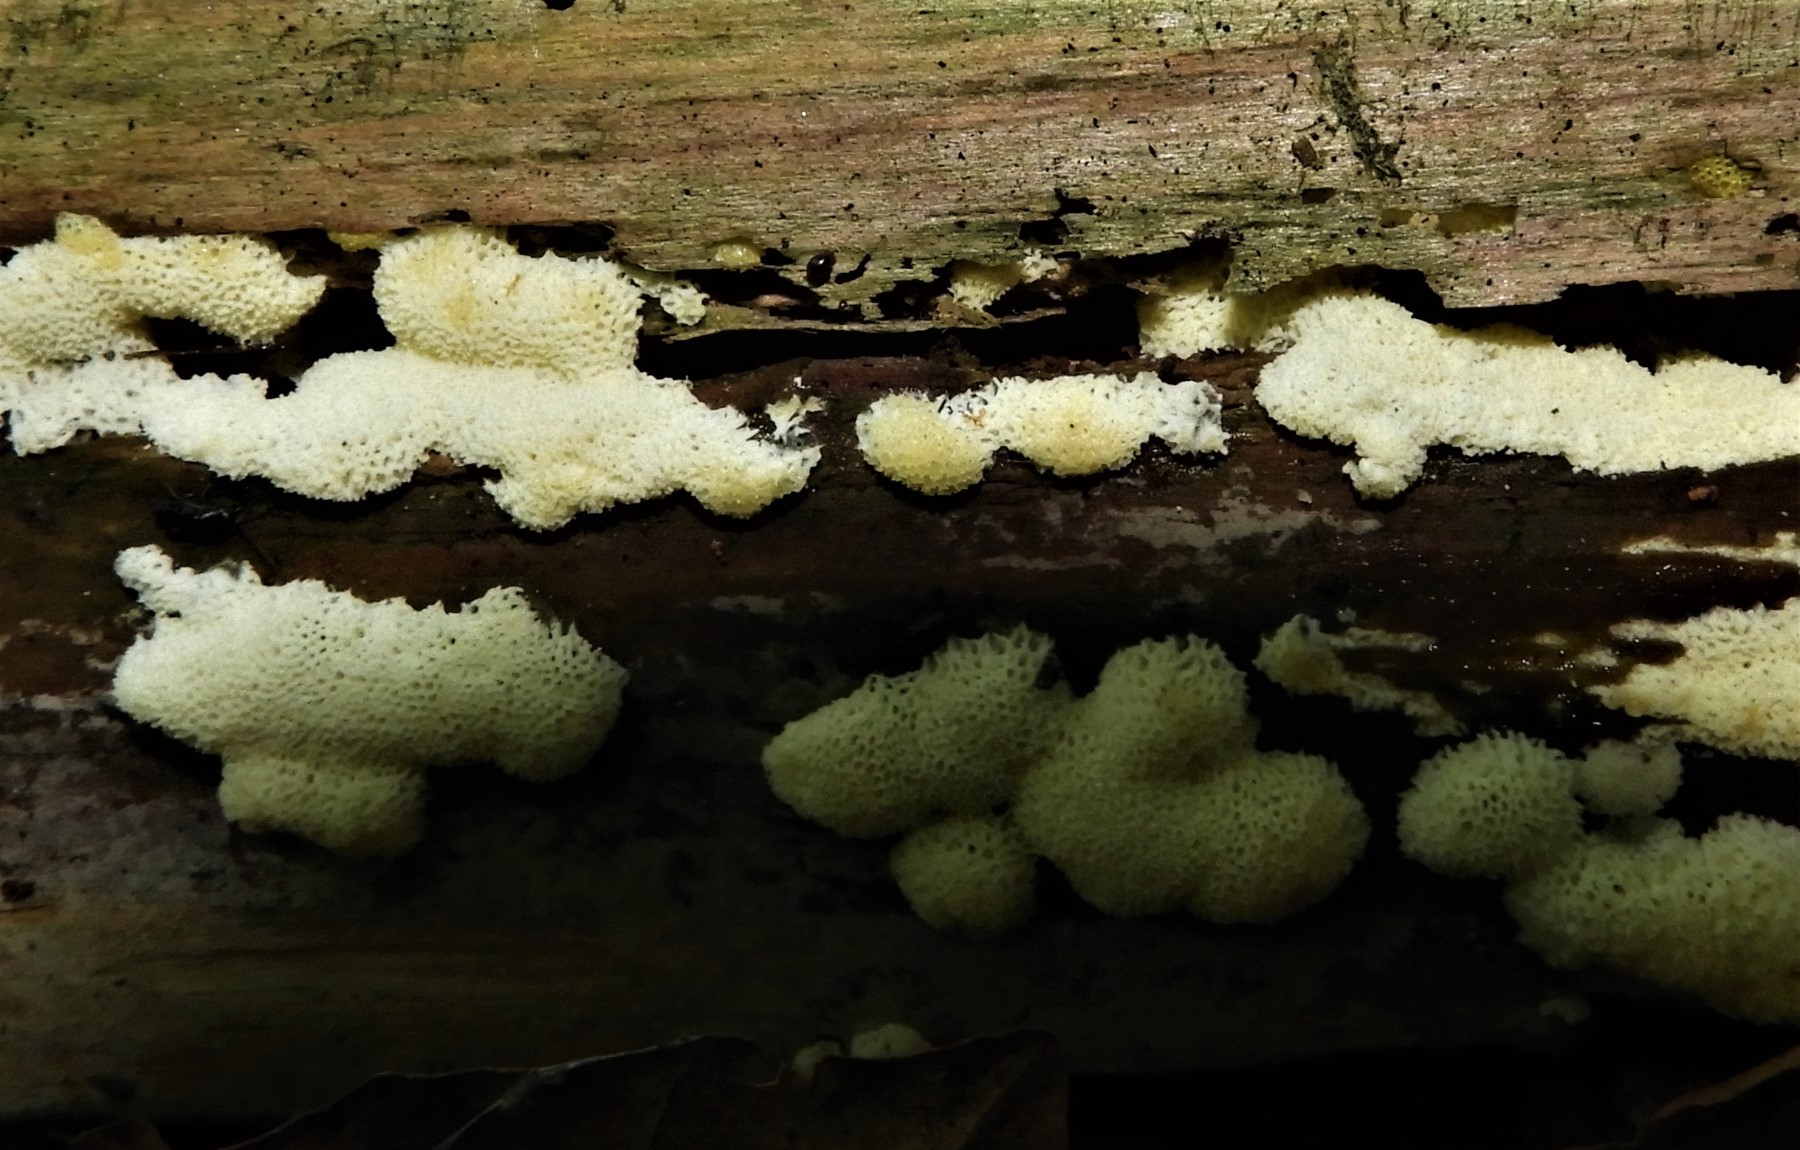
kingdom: Protozoa
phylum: Mycetozoa
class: Protosteliomycetes
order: Ceratiomyxales
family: Ceratiomyxaceae
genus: Ceratiomyxa
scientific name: Ceratiomyxa fruticulosa
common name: Honeycomb coral slime mold
